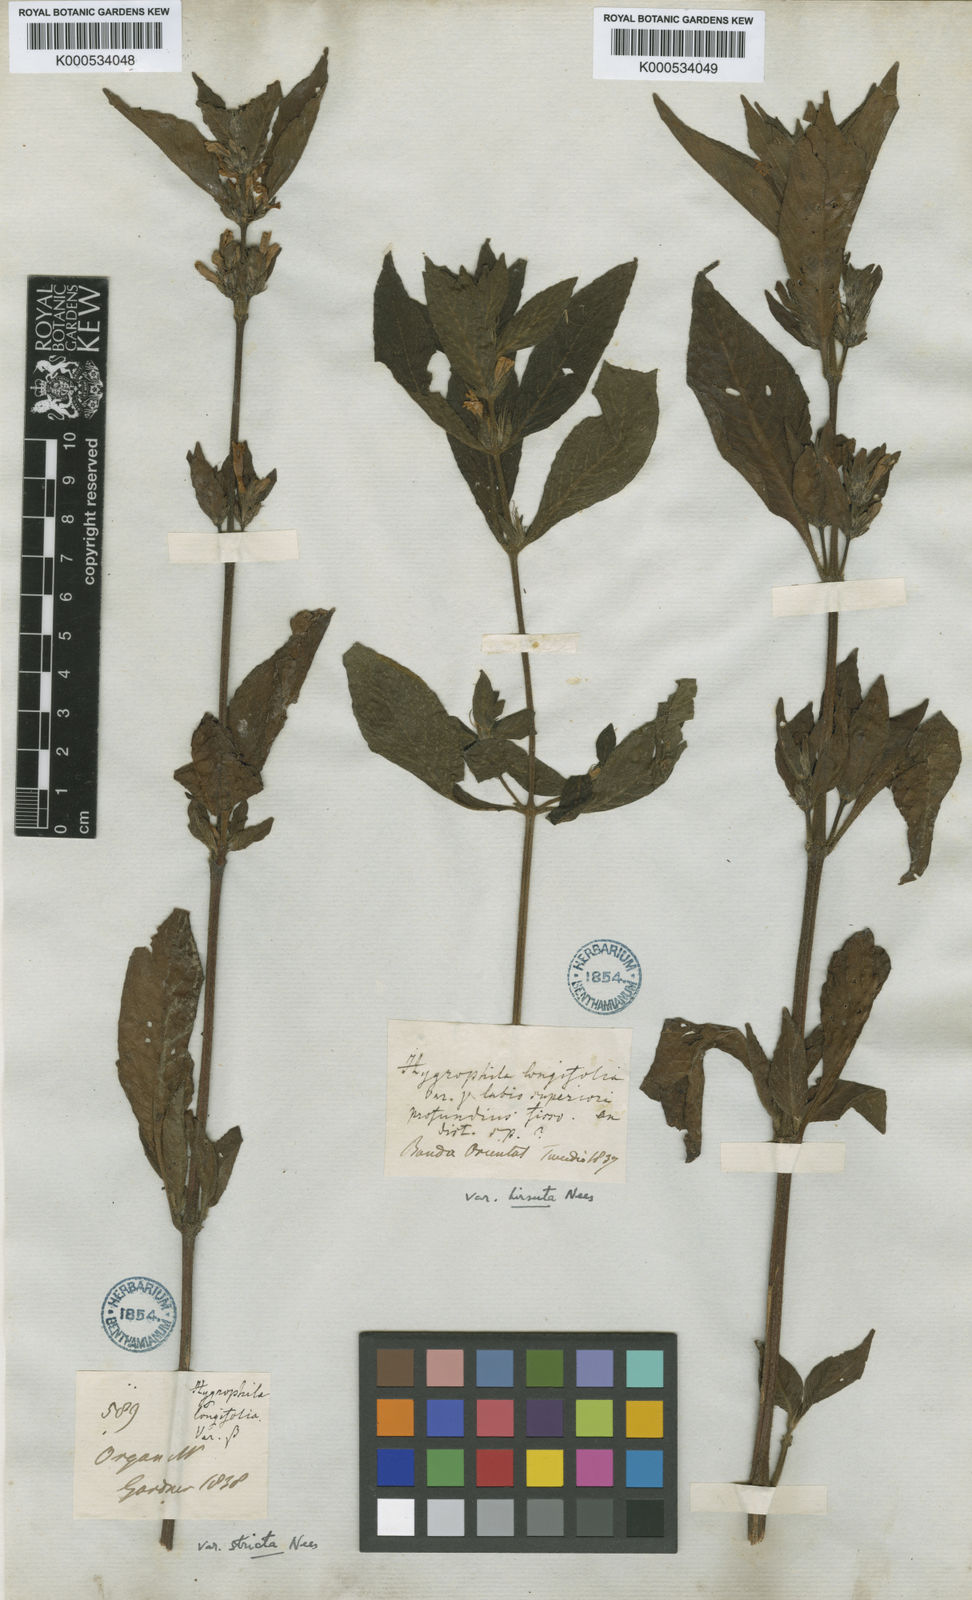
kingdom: Plantae
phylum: Tracheophyta
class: Magnoliopsida
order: Lamiales
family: Acanthaceae
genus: Hygrophila
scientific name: Hygrophila costata
